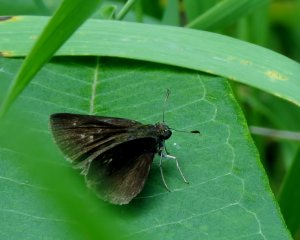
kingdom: Animalia
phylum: Arthropoda
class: Insecta
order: Lepidoptera
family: Hesperiidae
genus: Euphyes
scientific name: Euphyes vestris
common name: Dun Skipper
